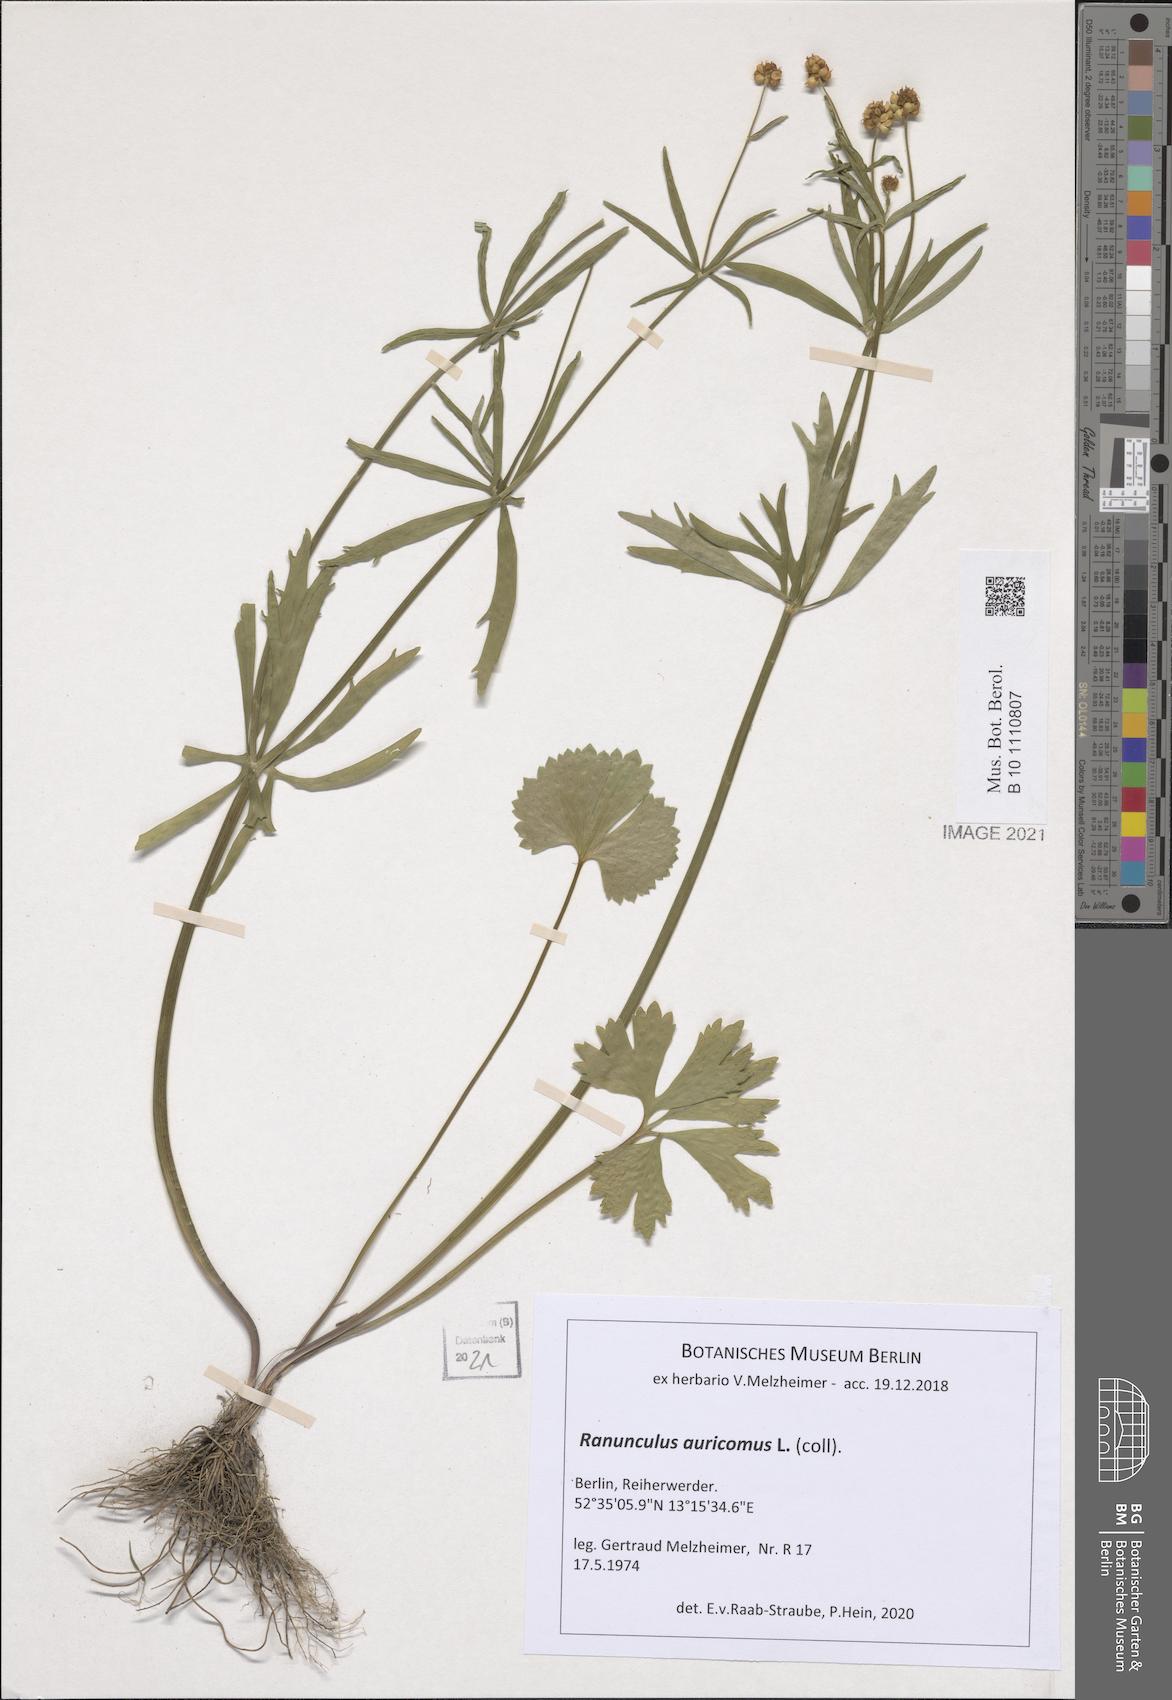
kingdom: Plantae
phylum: Tracheophyta
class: Magnoliopsida
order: Ranunculales
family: Ranunculaceae
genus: Ranunculus
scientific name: Ranunculus auricomus
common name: Goldilocks buttercup
